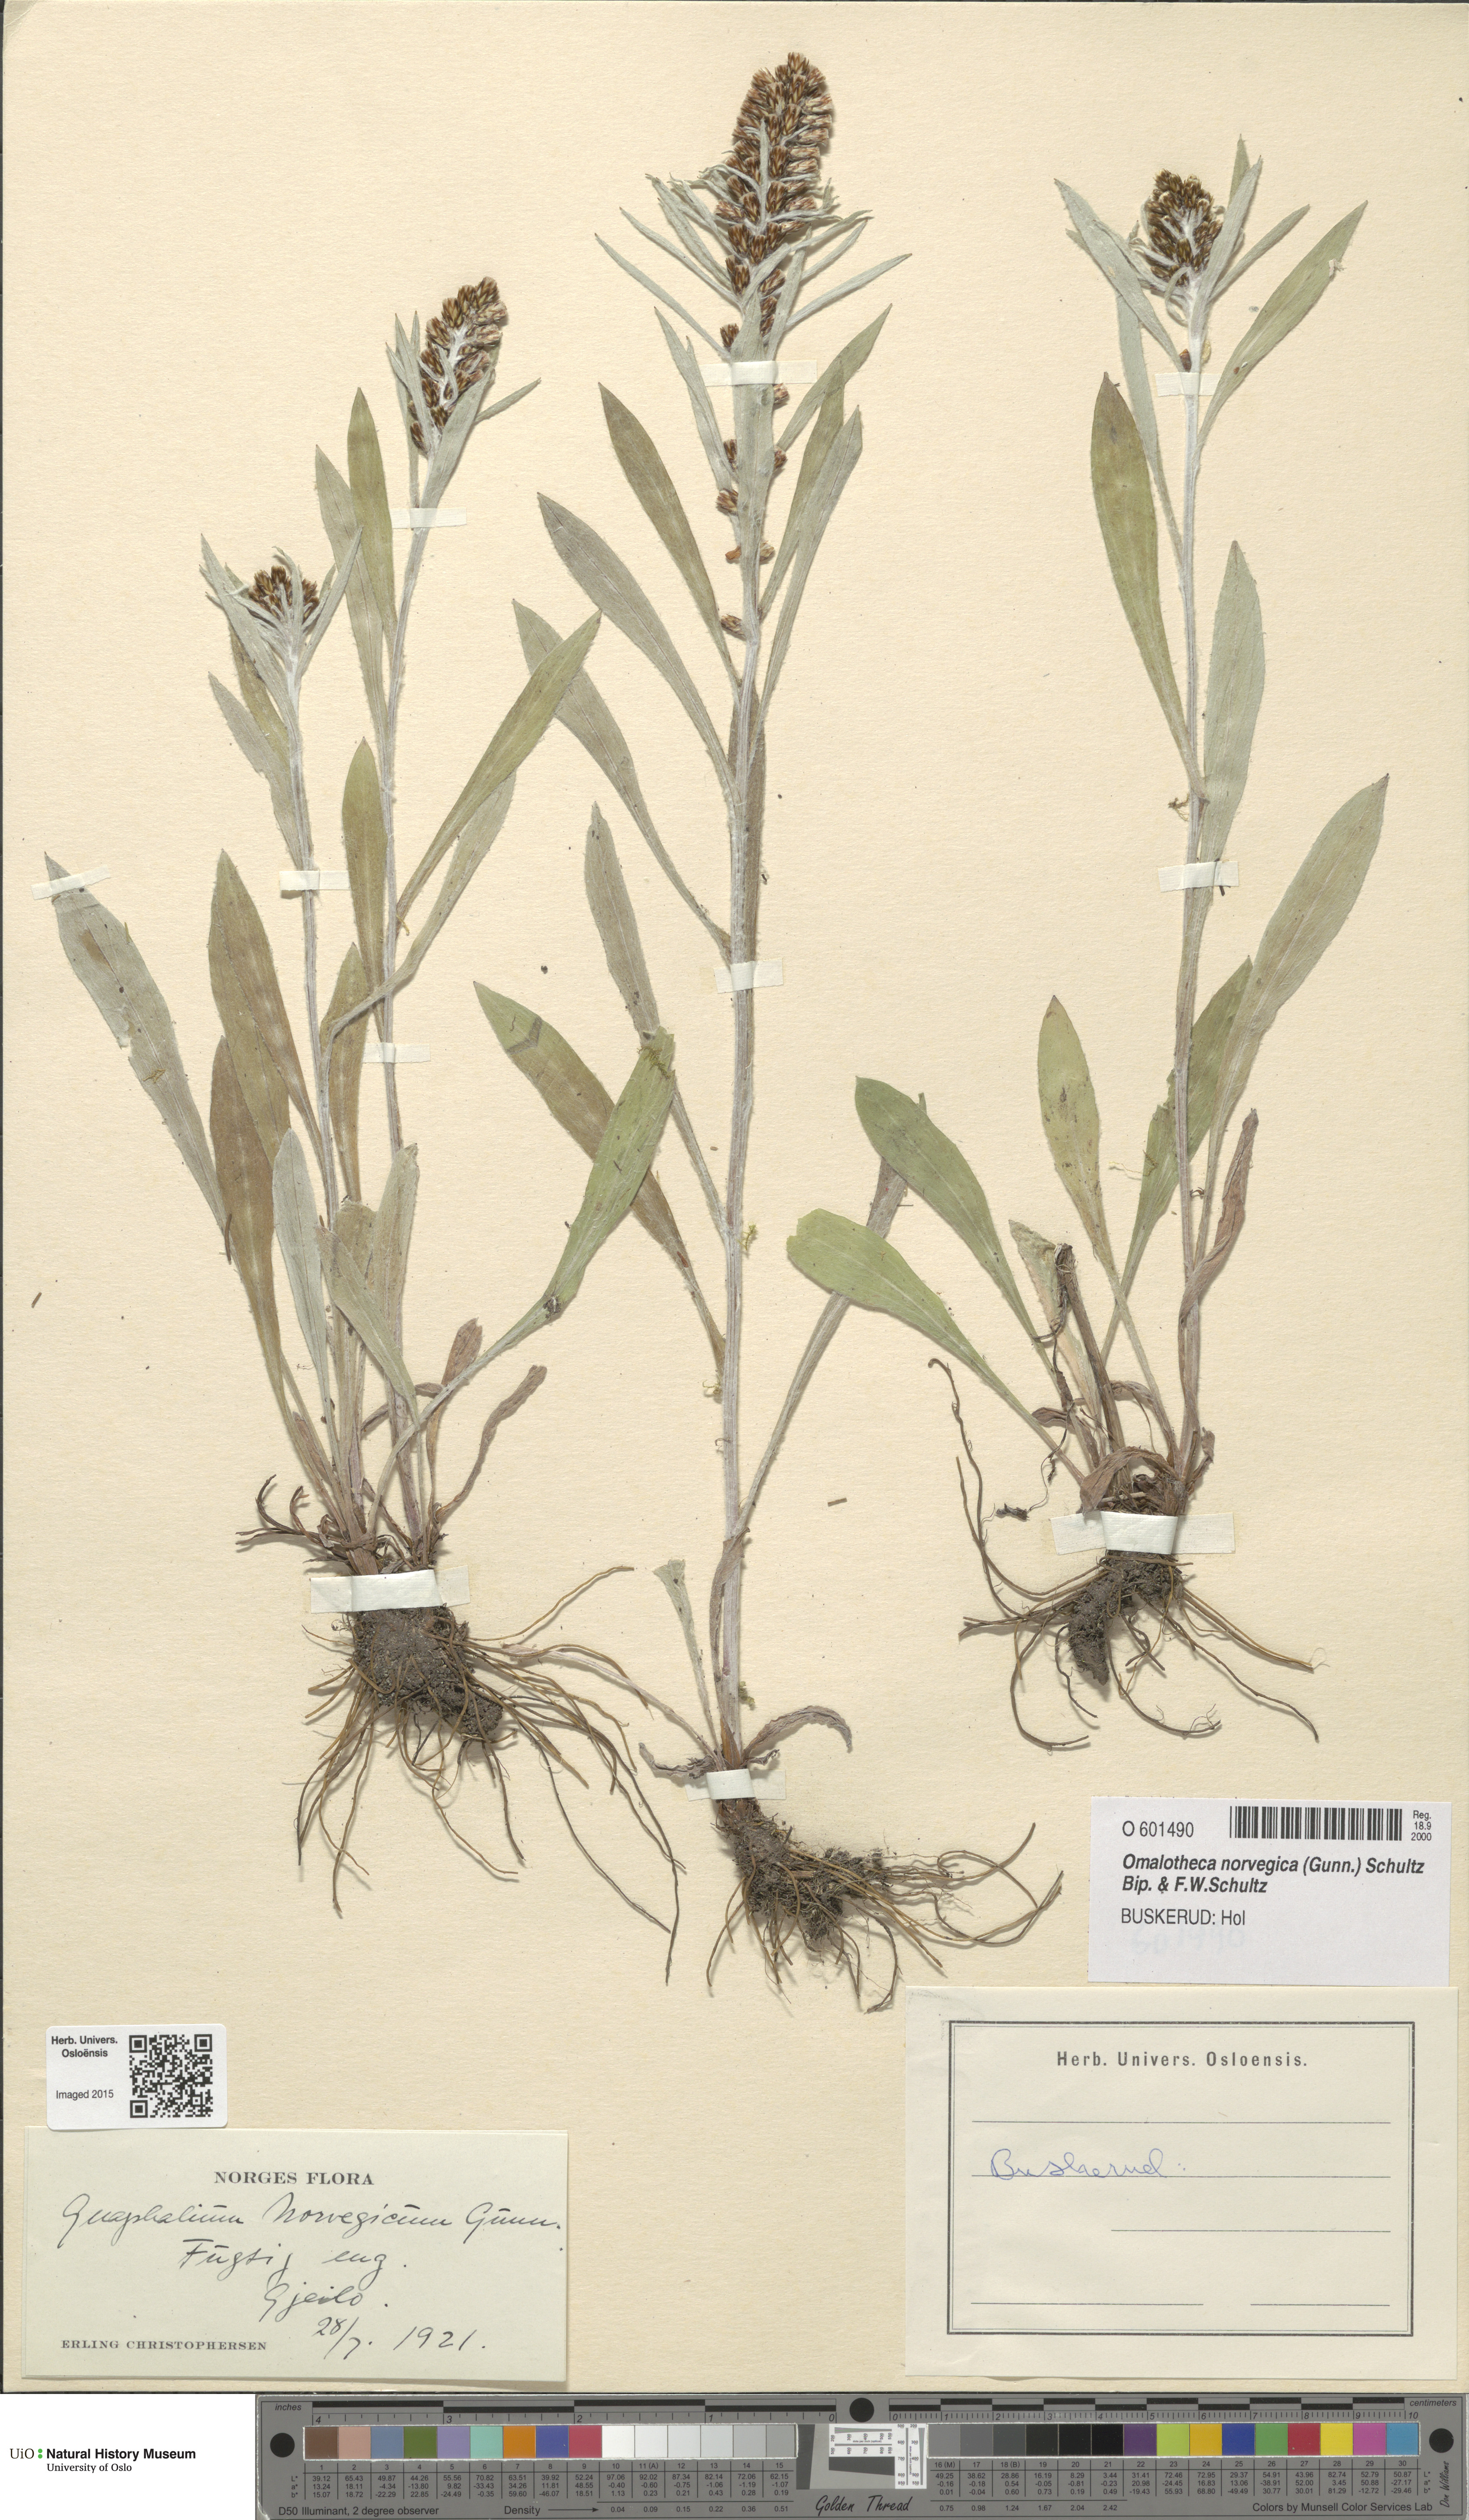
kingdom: Plantae
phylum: Tracheophyta
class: Magnoliopsida
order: Asterales
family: Asteraceae
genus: Omalotheca
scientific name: Omalotheca norvegica
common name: Norwegian arctic-cudweed
